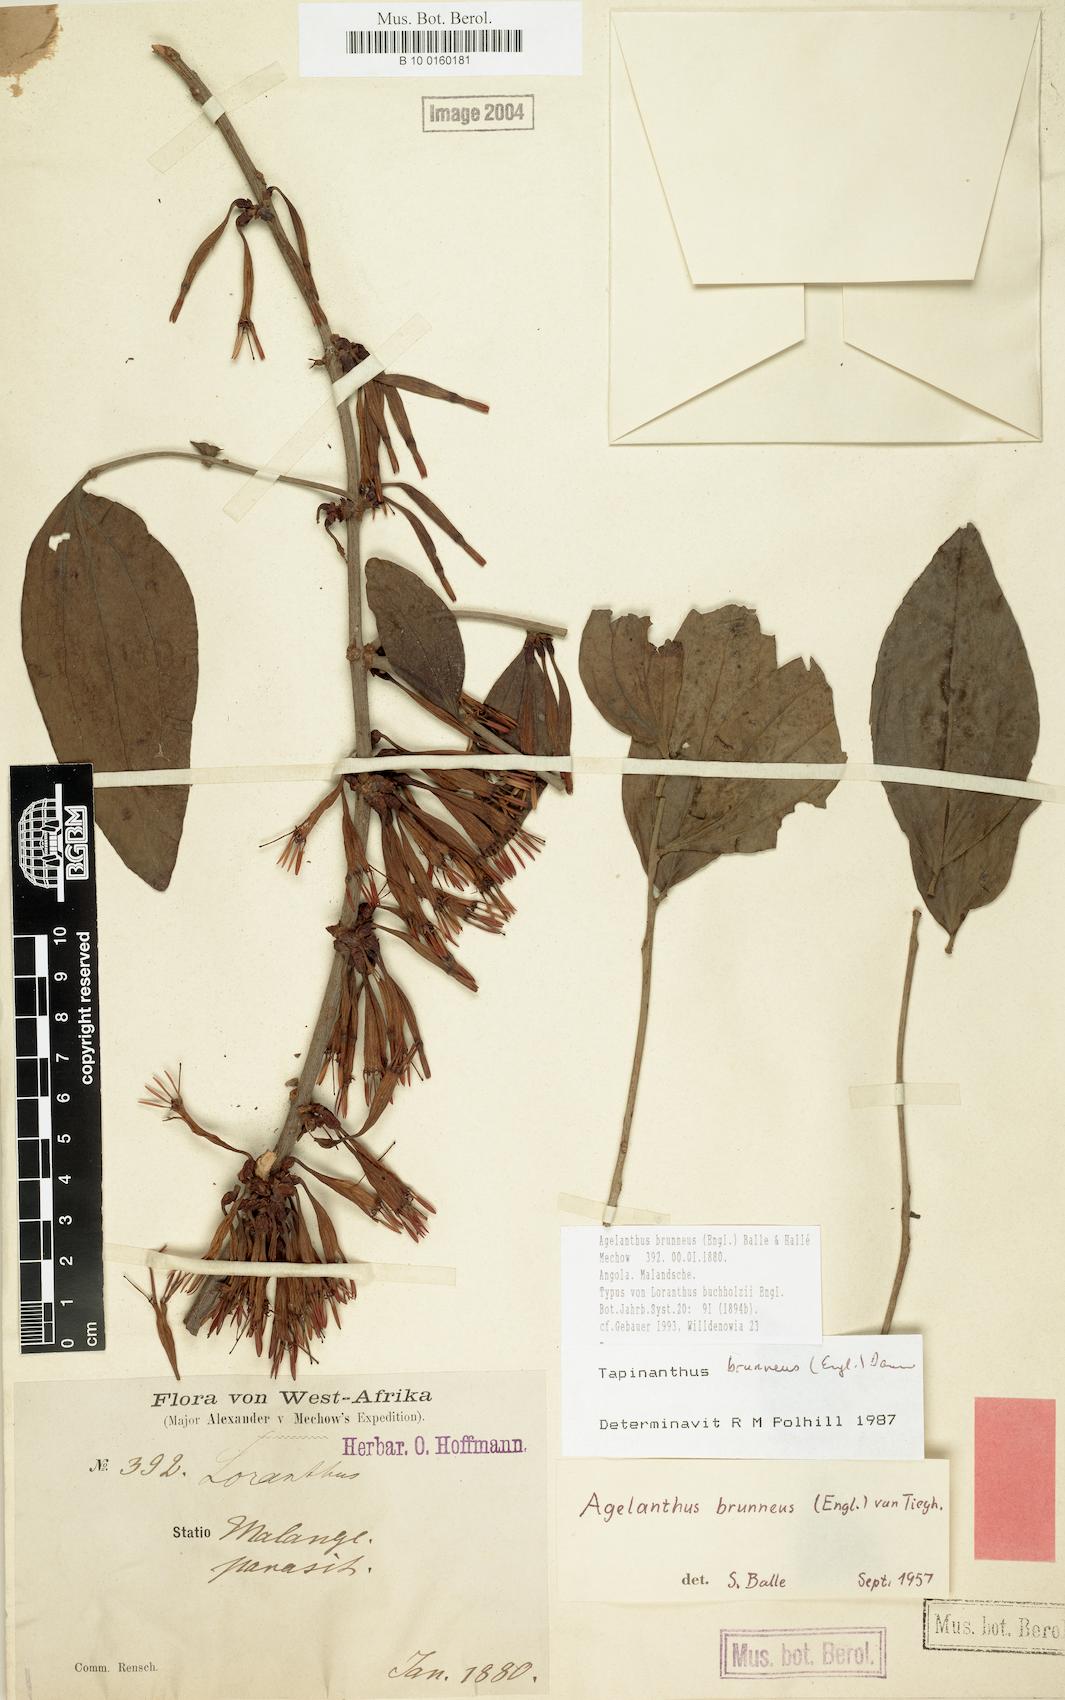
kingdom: Plantae
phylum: Tracheophyta
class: Magnoliopsida
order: Santalales
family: Loranthaceae
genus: Agelanthus
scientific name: Agelanthus brunneus
